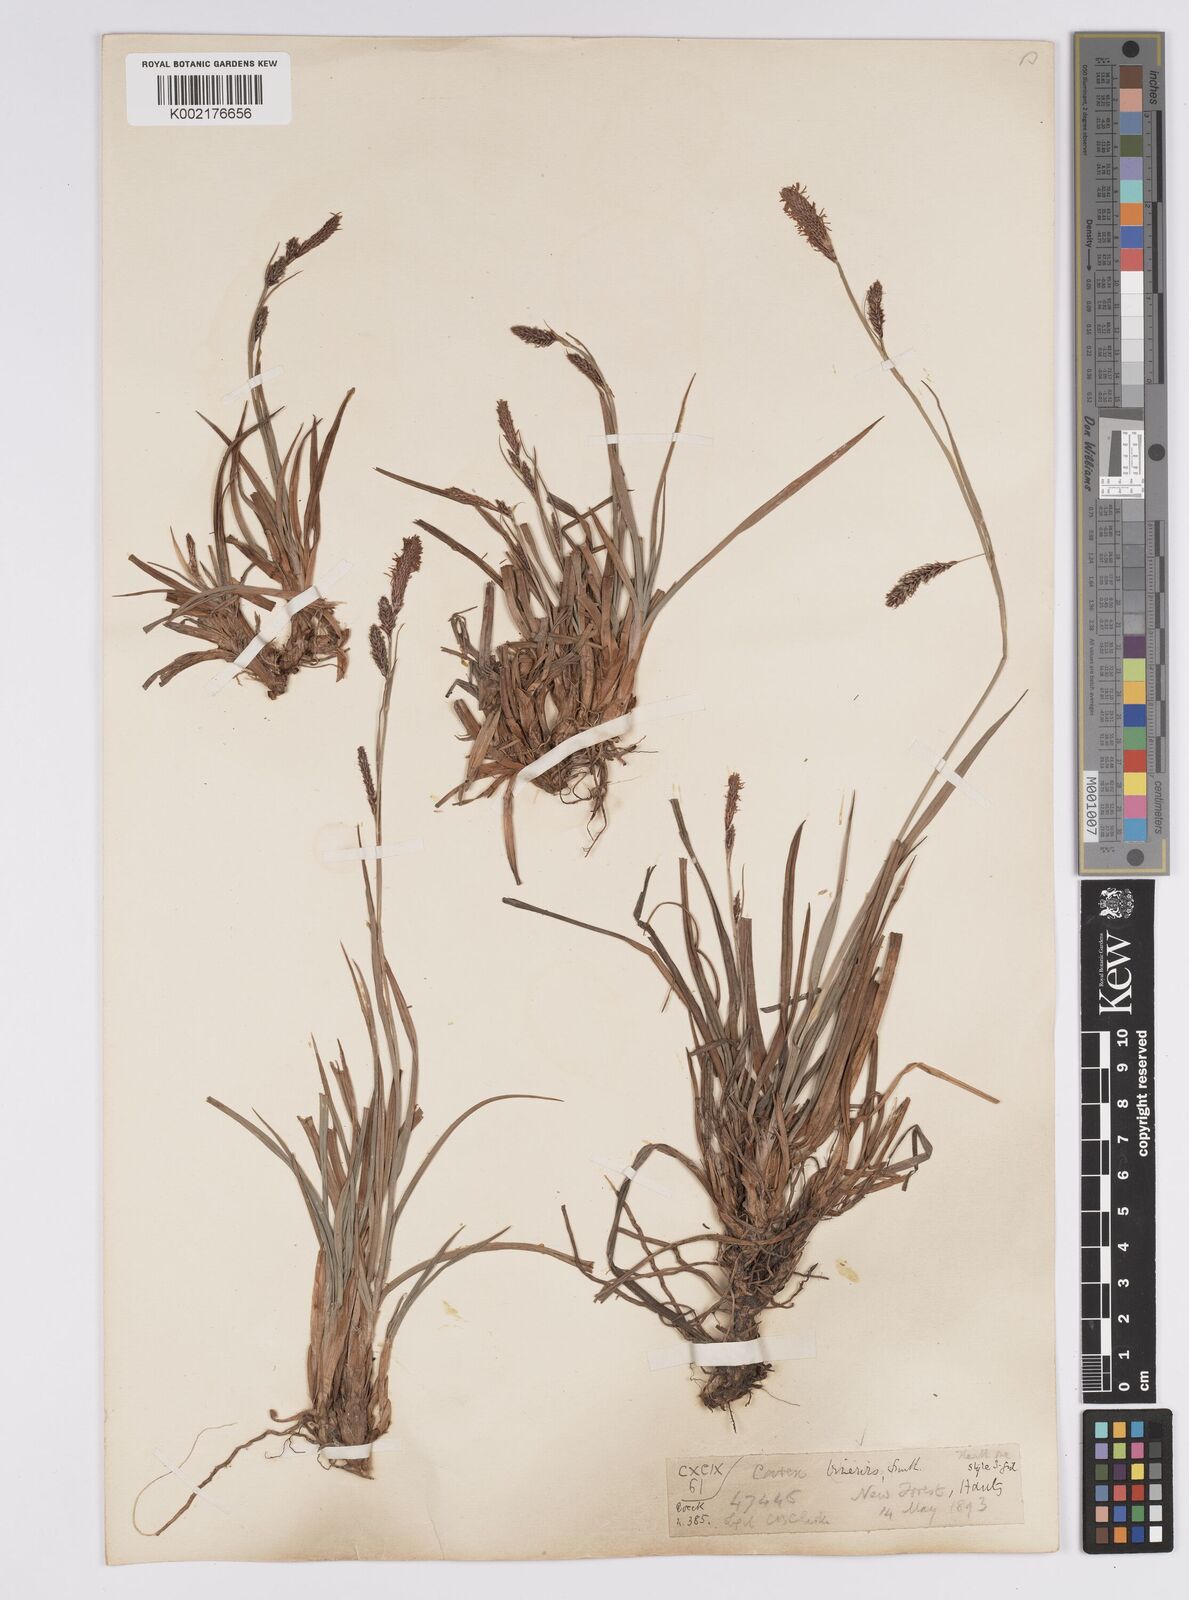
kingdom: Plantae
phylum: Tracheophyta
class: Liliopsida
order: Poales
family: Cyperaceae
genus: Carex
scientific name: Carex binervis
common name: Green-ribbed sedge
